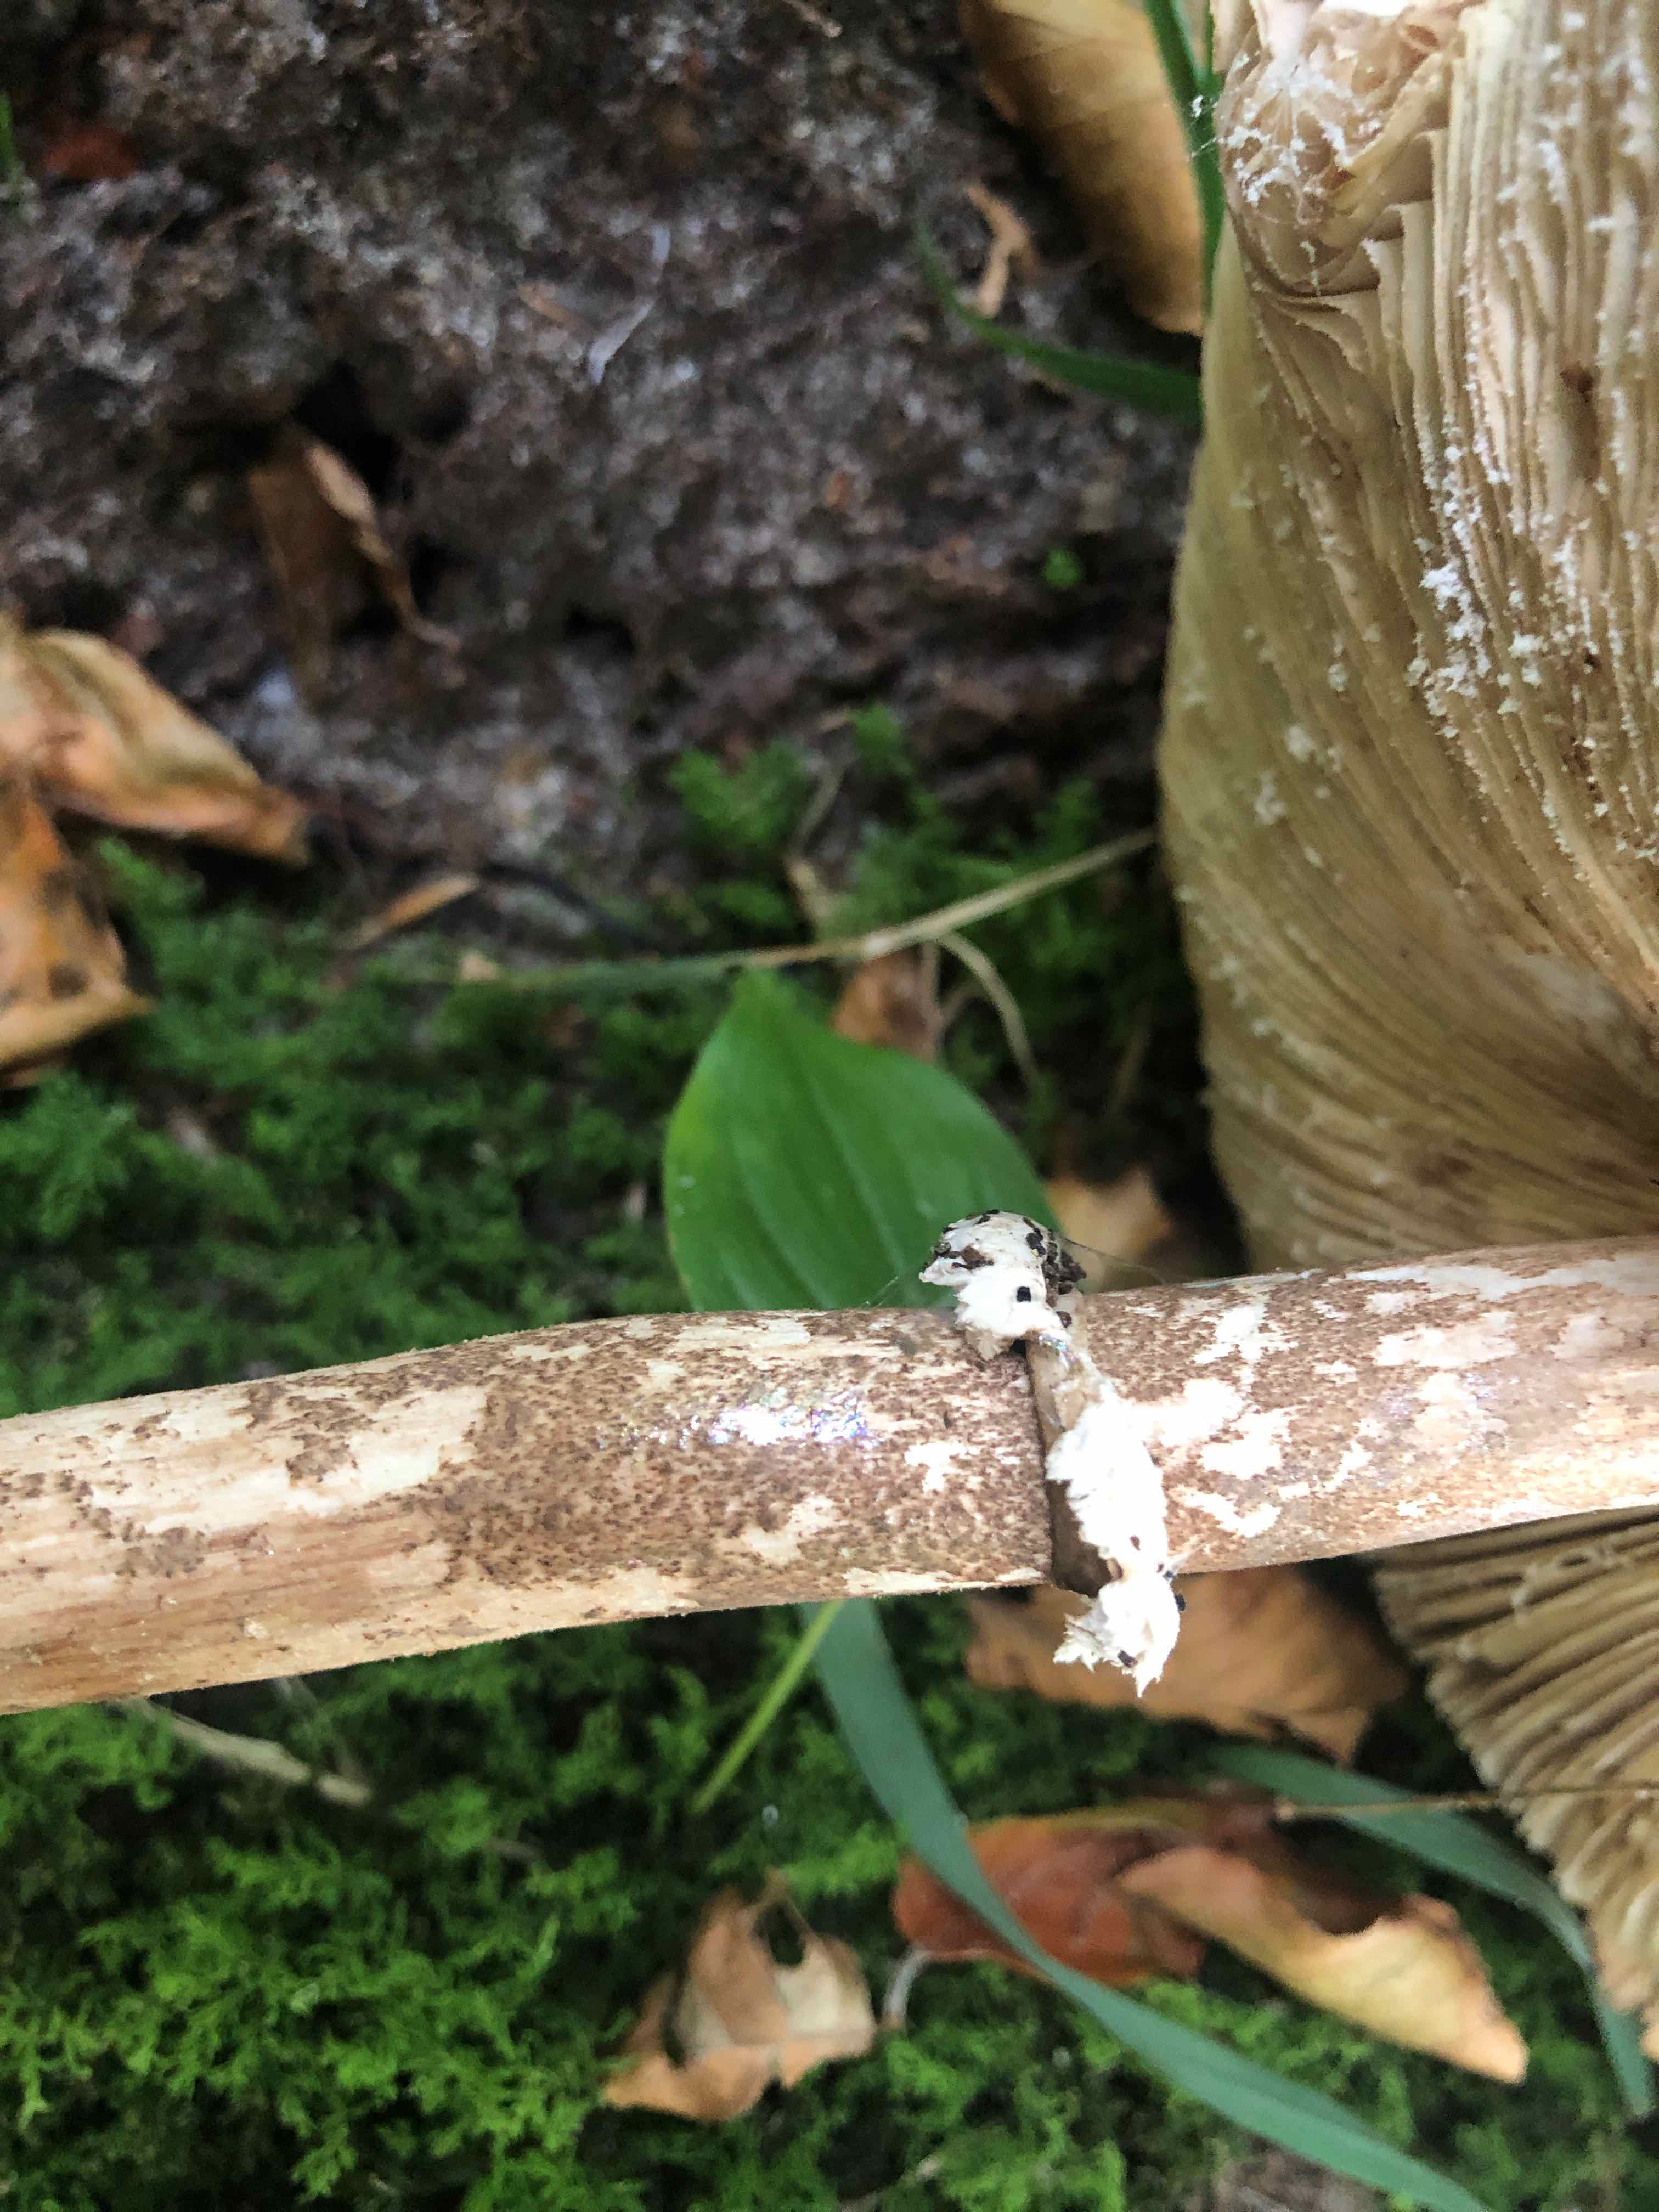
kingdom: Fungi
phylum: Basidiomycota
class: Agaricomycetes
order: Agaricales
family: Agaricaceae
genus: Macrolepiota
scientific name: Macrolepiota fuliginosa
